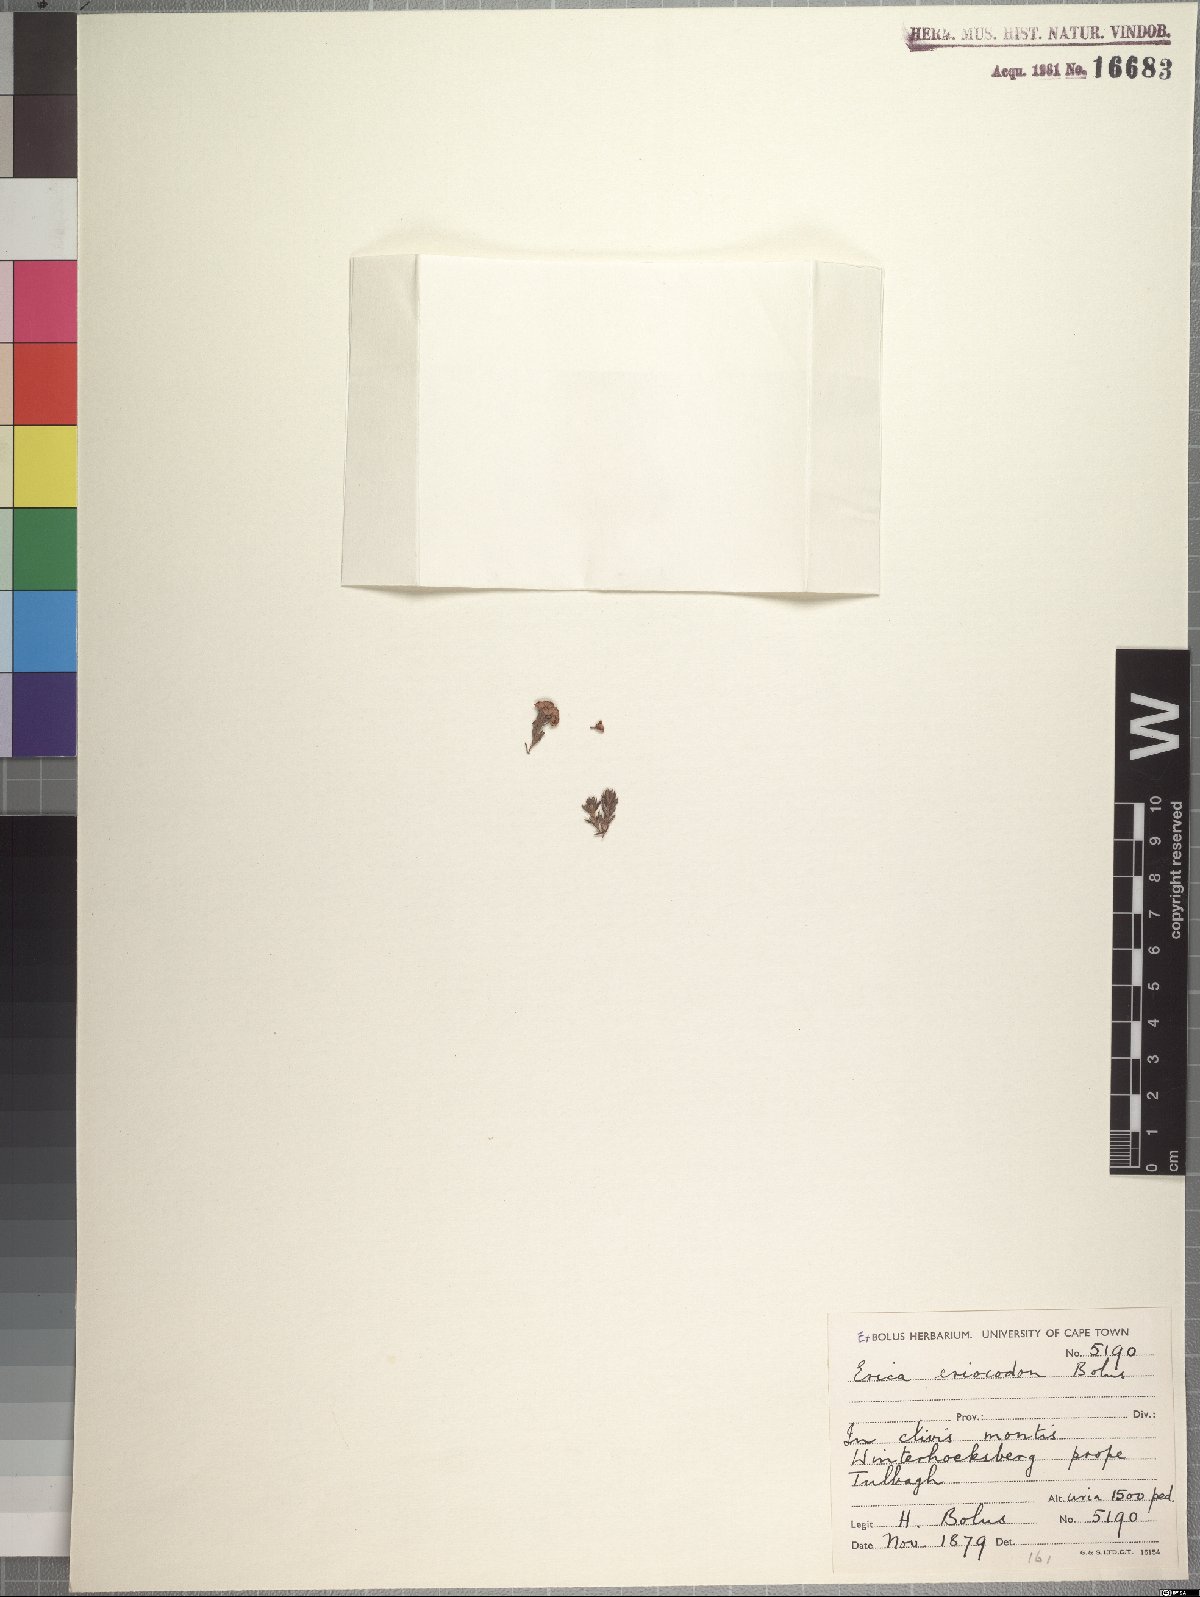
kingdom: Plantae
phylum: Tracheophyta
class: Magnoliopsida
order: Ericales
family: Ericaceae
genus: Erica
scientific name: Erica eriocodon
